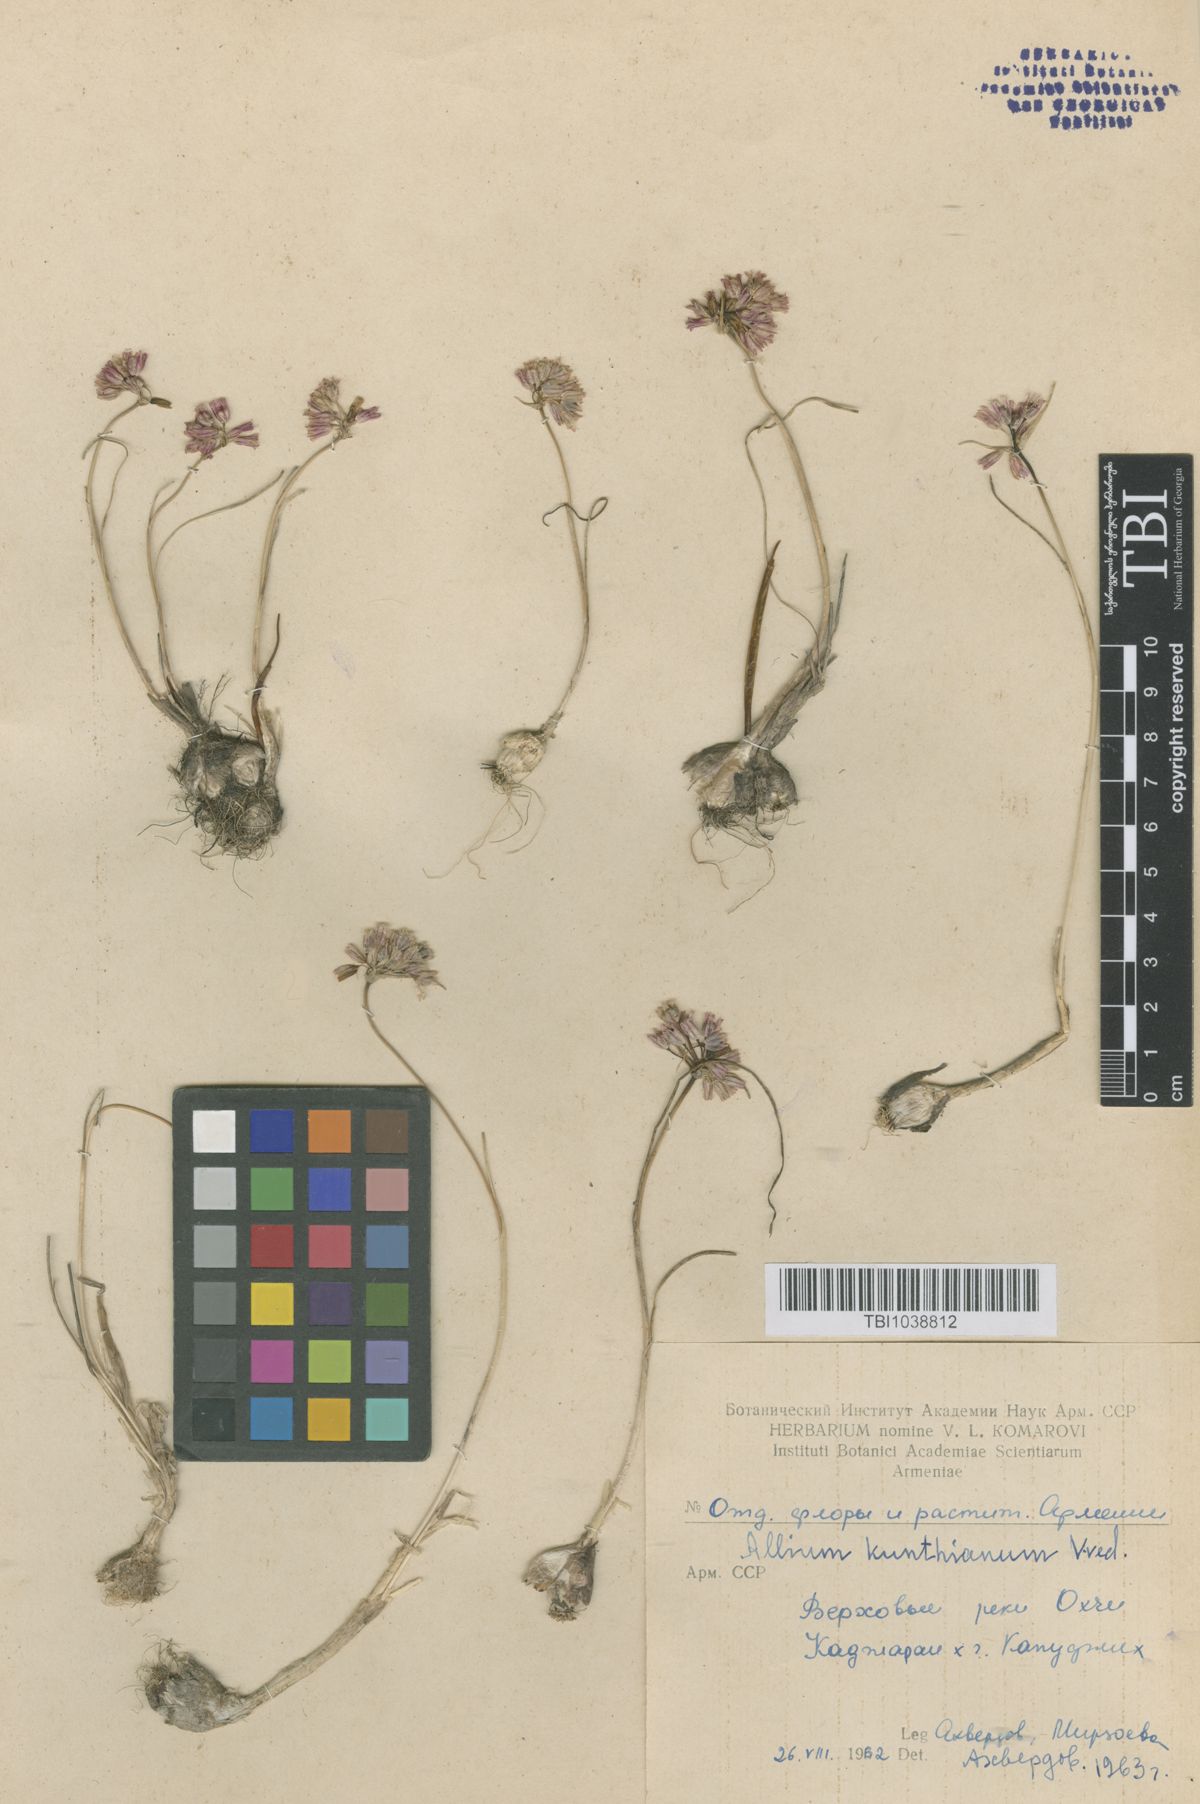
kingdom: Plantae
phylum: Tracheophyta
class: Liliopsida
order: Asparagales
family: Amaryllidaceae
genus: Allium
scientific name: Allium kunthianum
